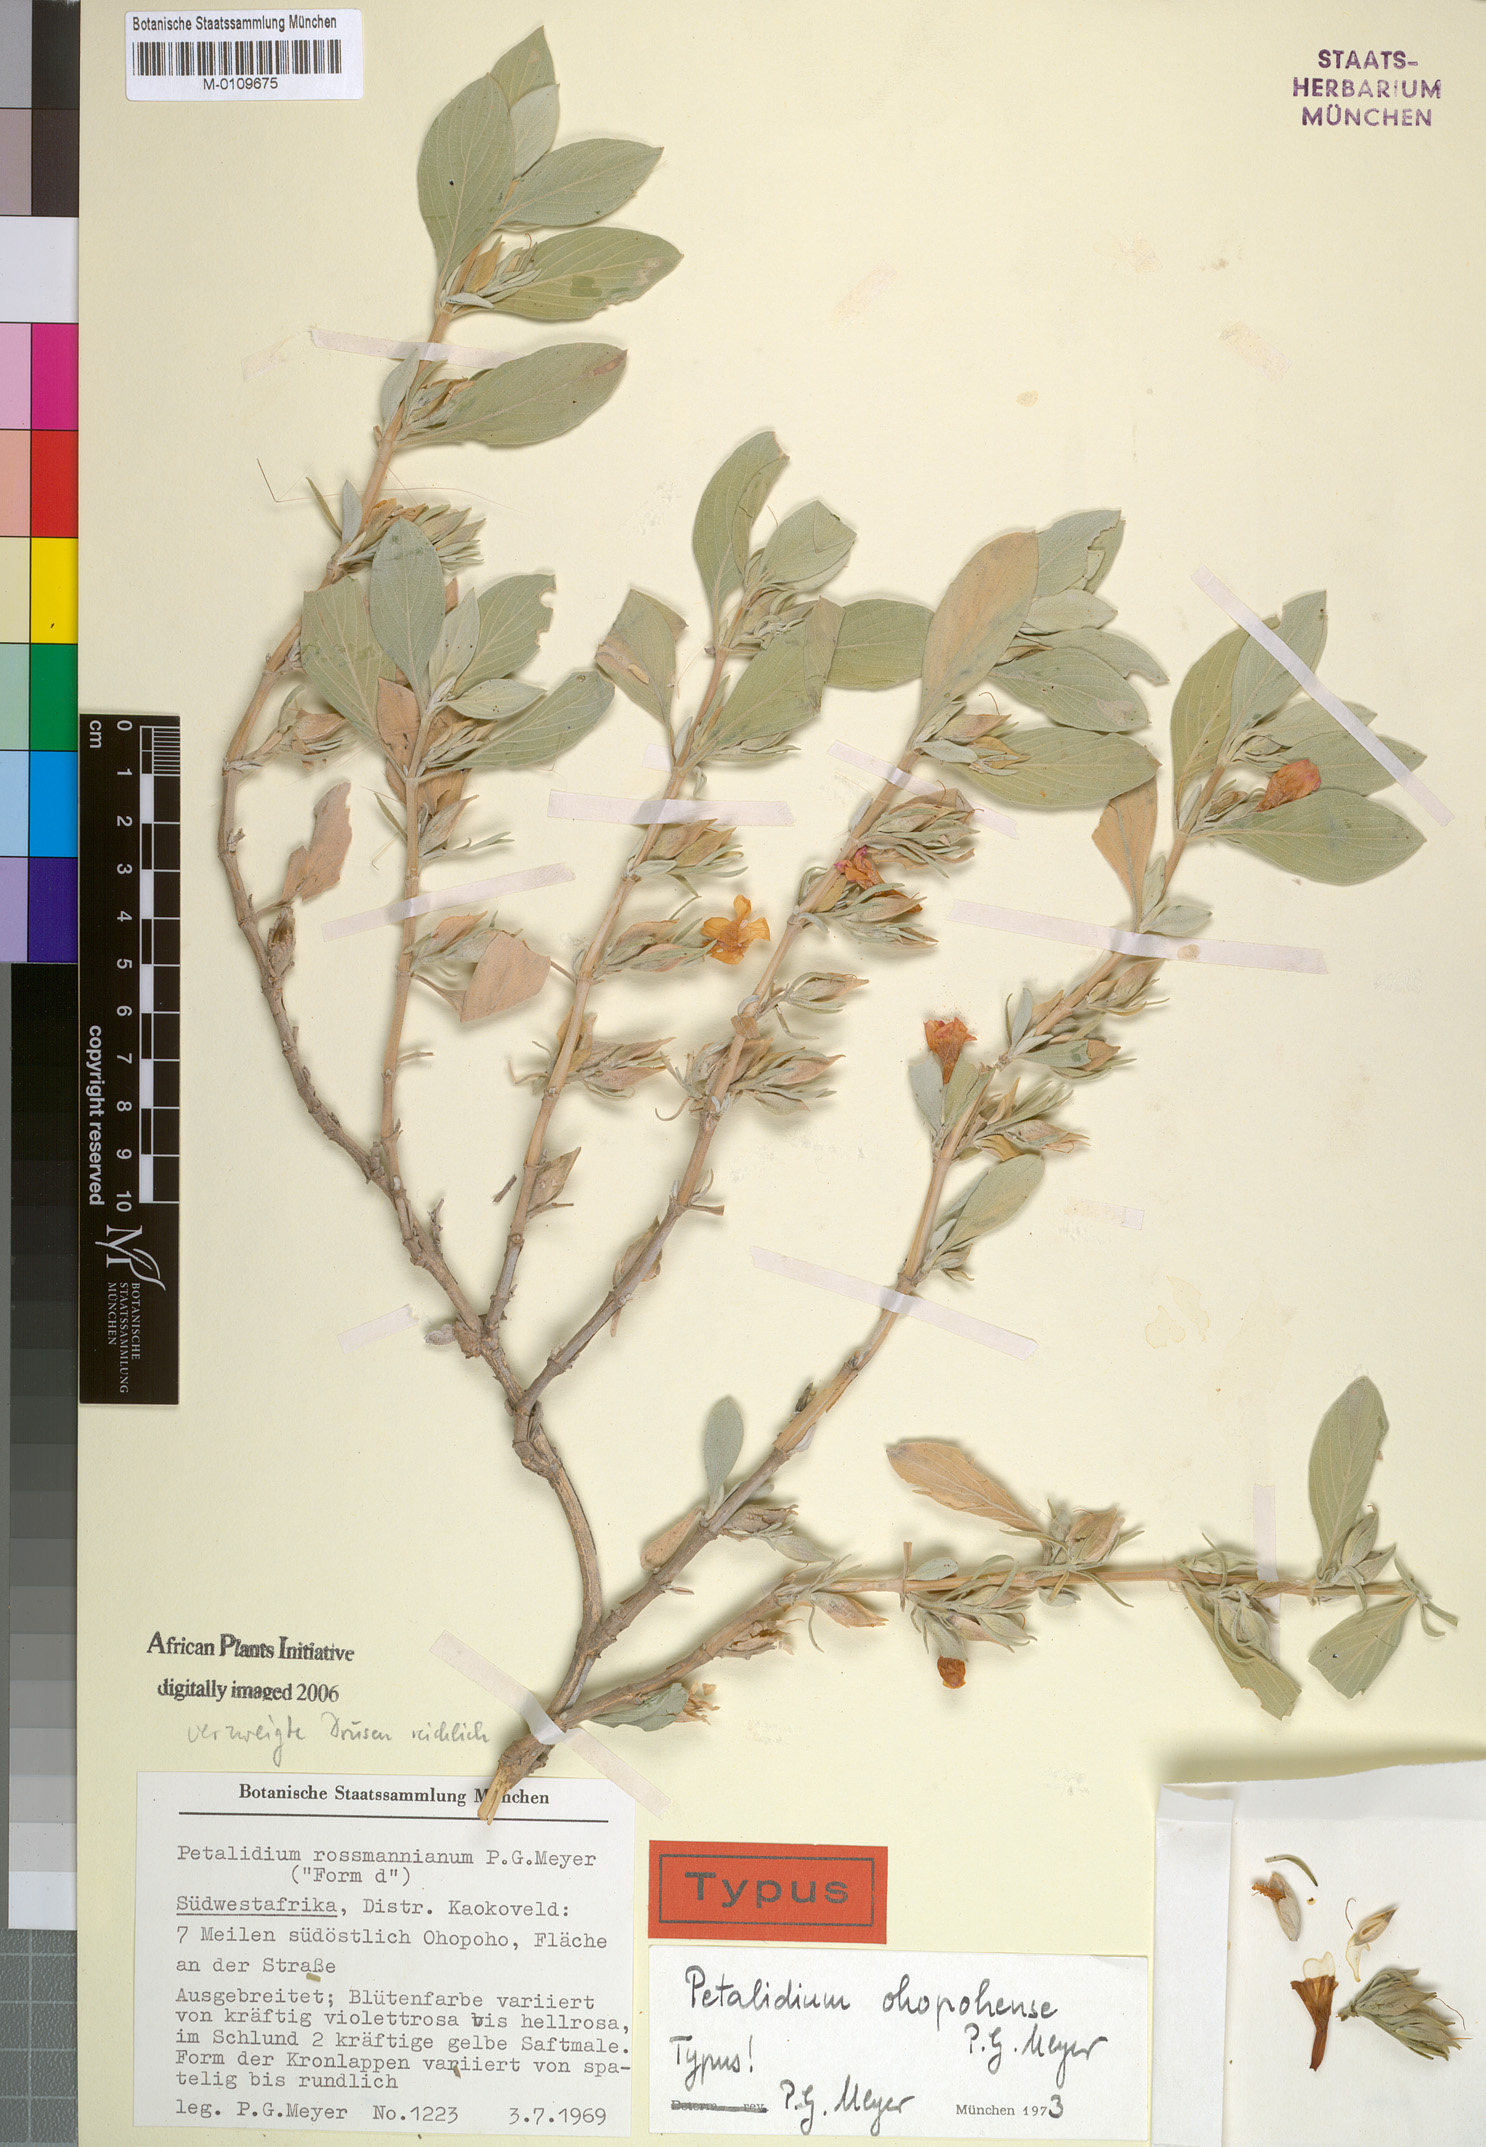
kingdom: Plantae
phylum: Tracheophyta
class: Magnoliopsida
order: Lamiales
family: Acanthaceae
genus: Petalidium
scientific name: Petalidium ohopohense
